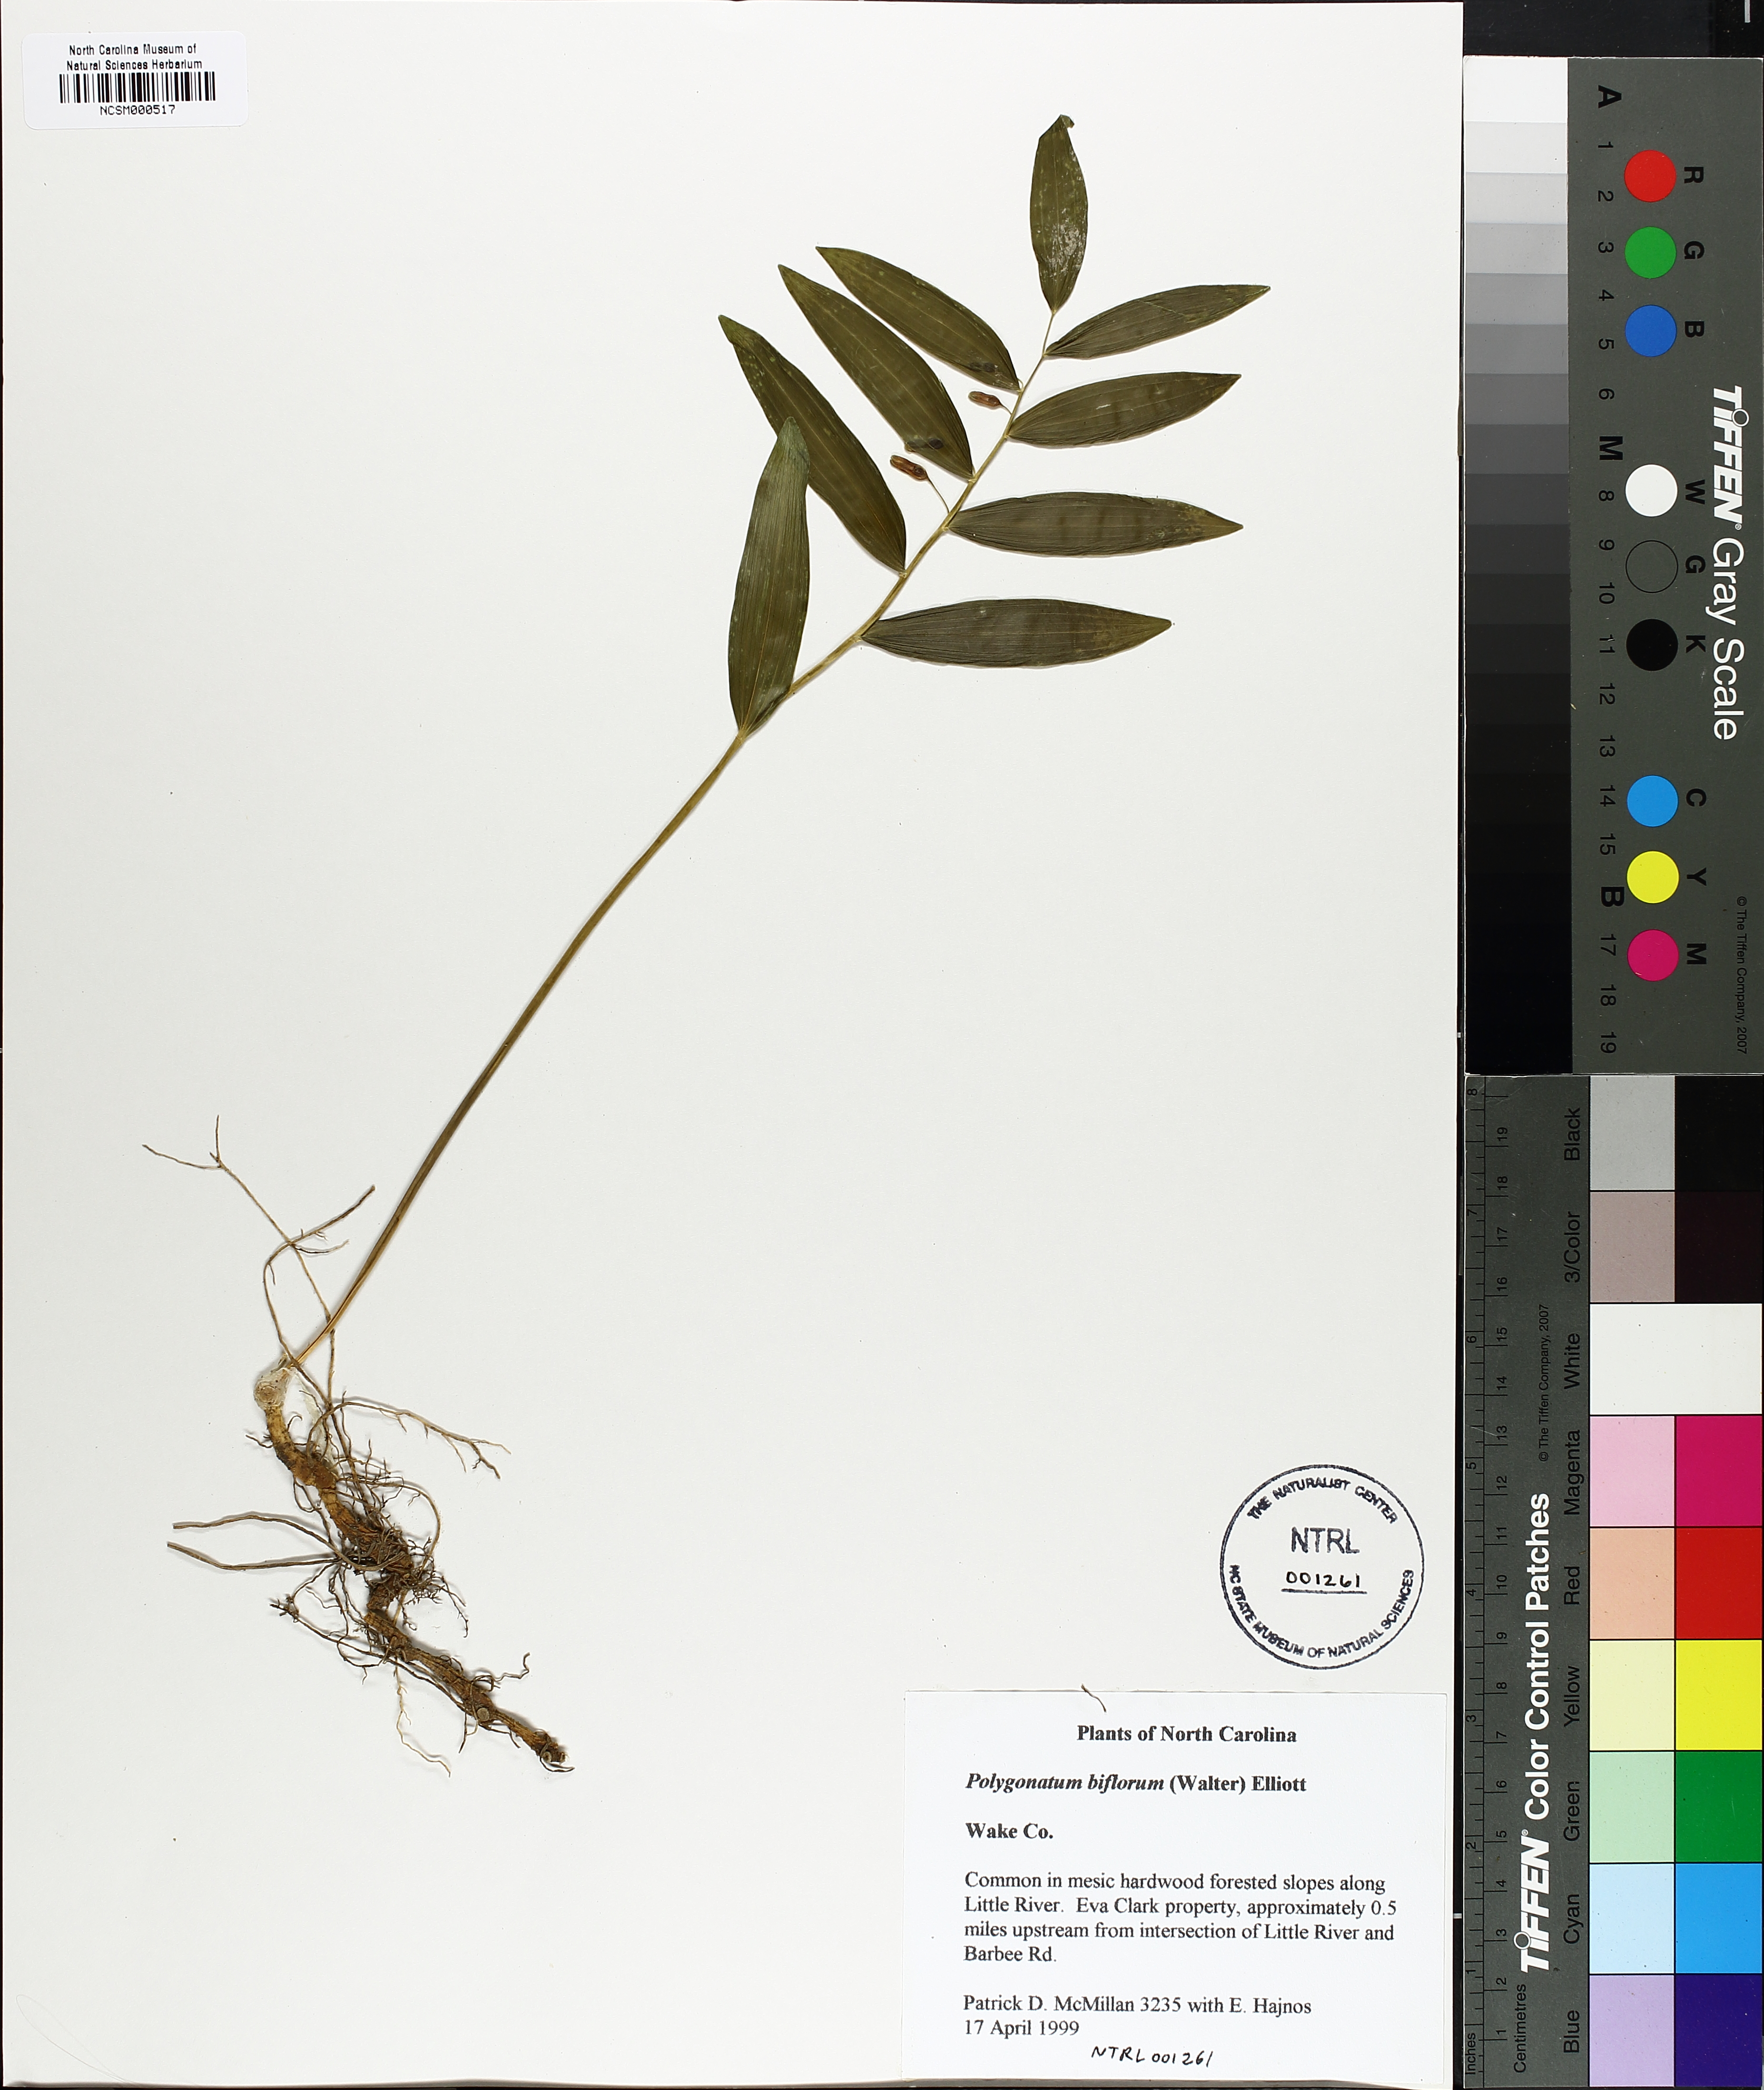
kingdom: Plantae
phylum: Tracheophyta
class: Liliopsida
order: Asparagales
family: Asparagaceae
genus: Polygonatum
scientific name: Polygonatum biflorum
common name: American solomon's-seal
